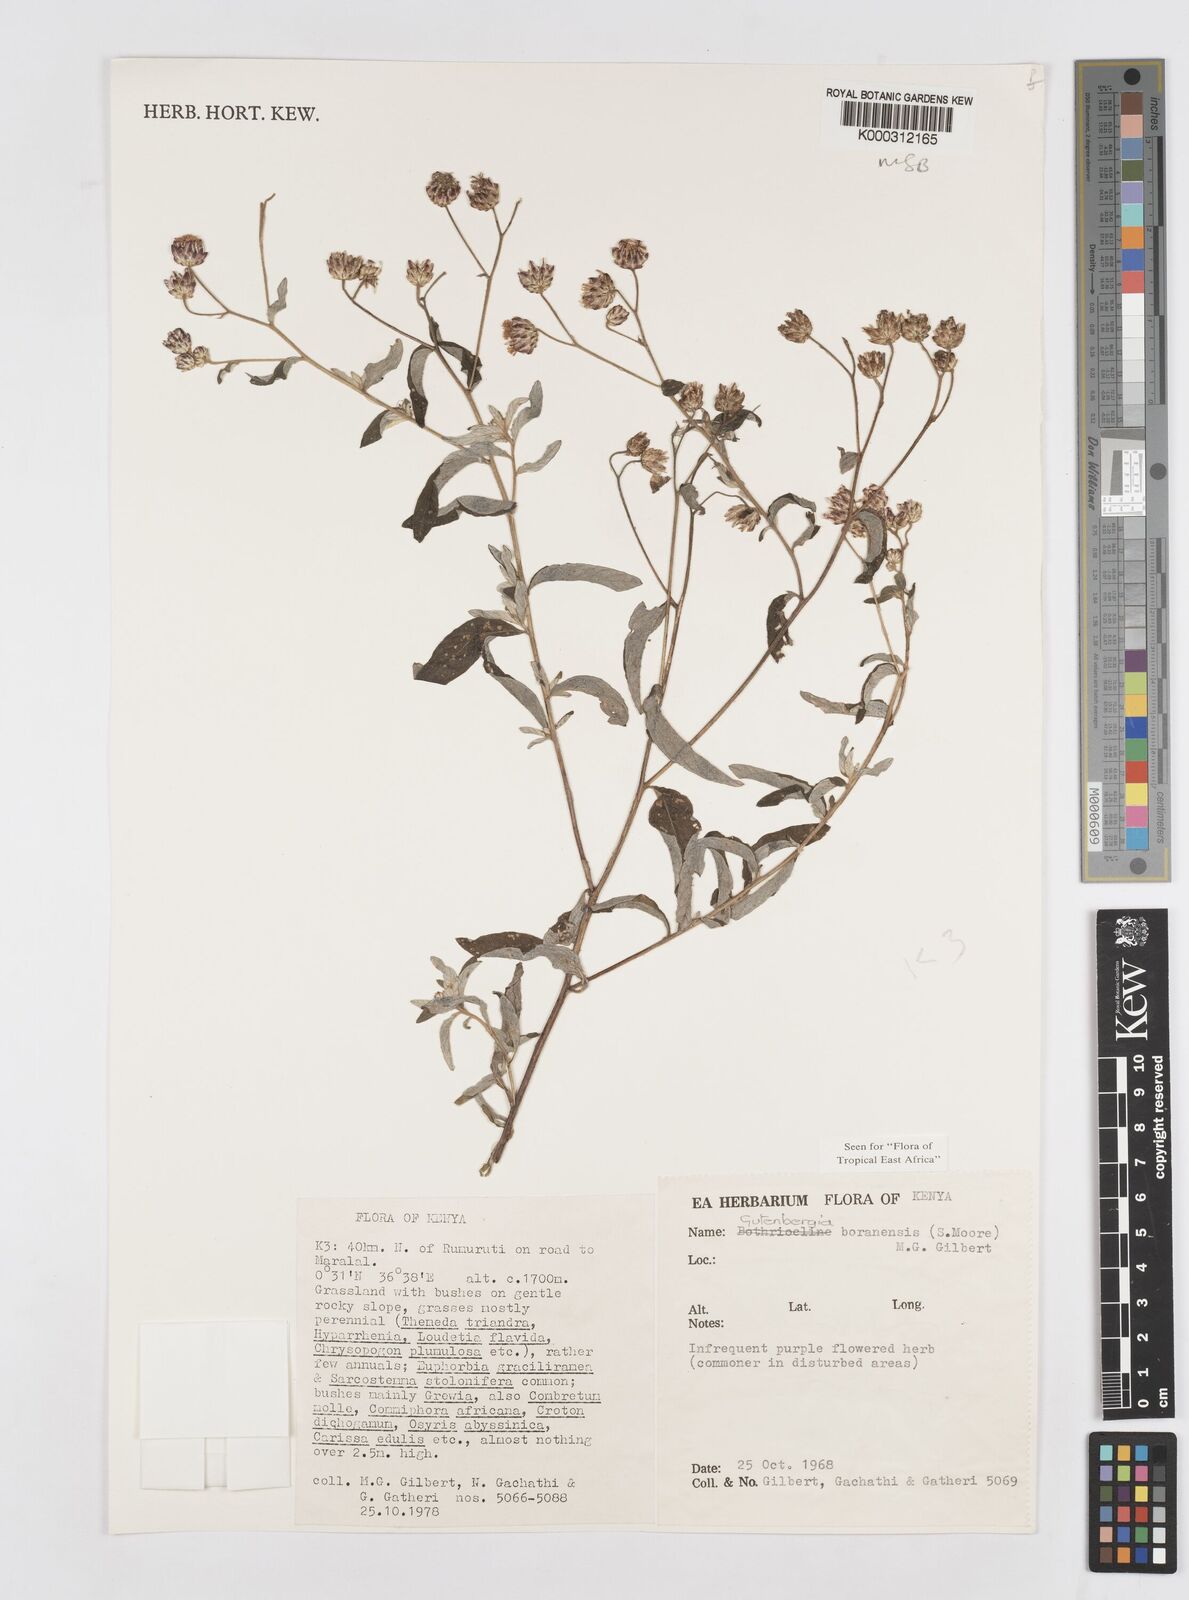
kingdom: Plantae
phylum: Tracheophyta
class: Magnoliopsida
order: Asterales
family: Asteraceae
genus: Gutenbergia
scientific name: Gutenbergia boranensis
